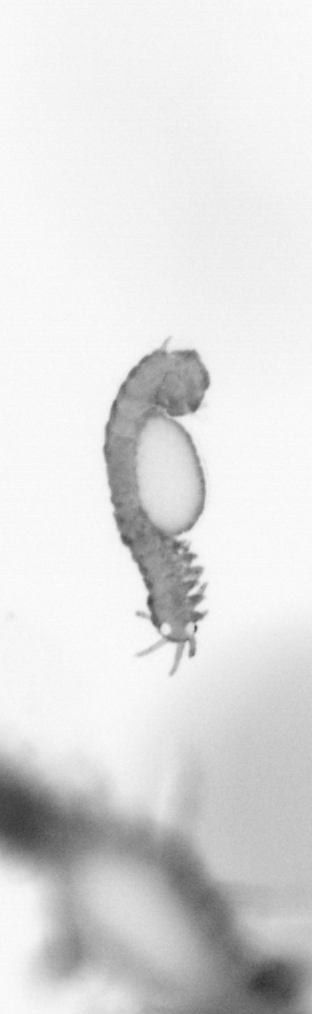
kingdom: Animalia
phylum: Annelida
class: Polychaeta
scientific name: Polychaeta
